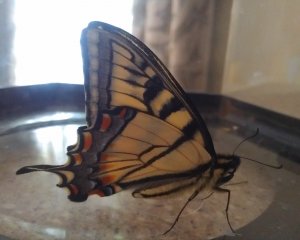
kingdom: Animalia
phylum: Arthropoda
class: Insecta
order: Lepidoptera
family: Papilionidae
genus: Pterourus
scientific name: Pterourus canadensis
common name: Canadian Tiger Swallowtail
